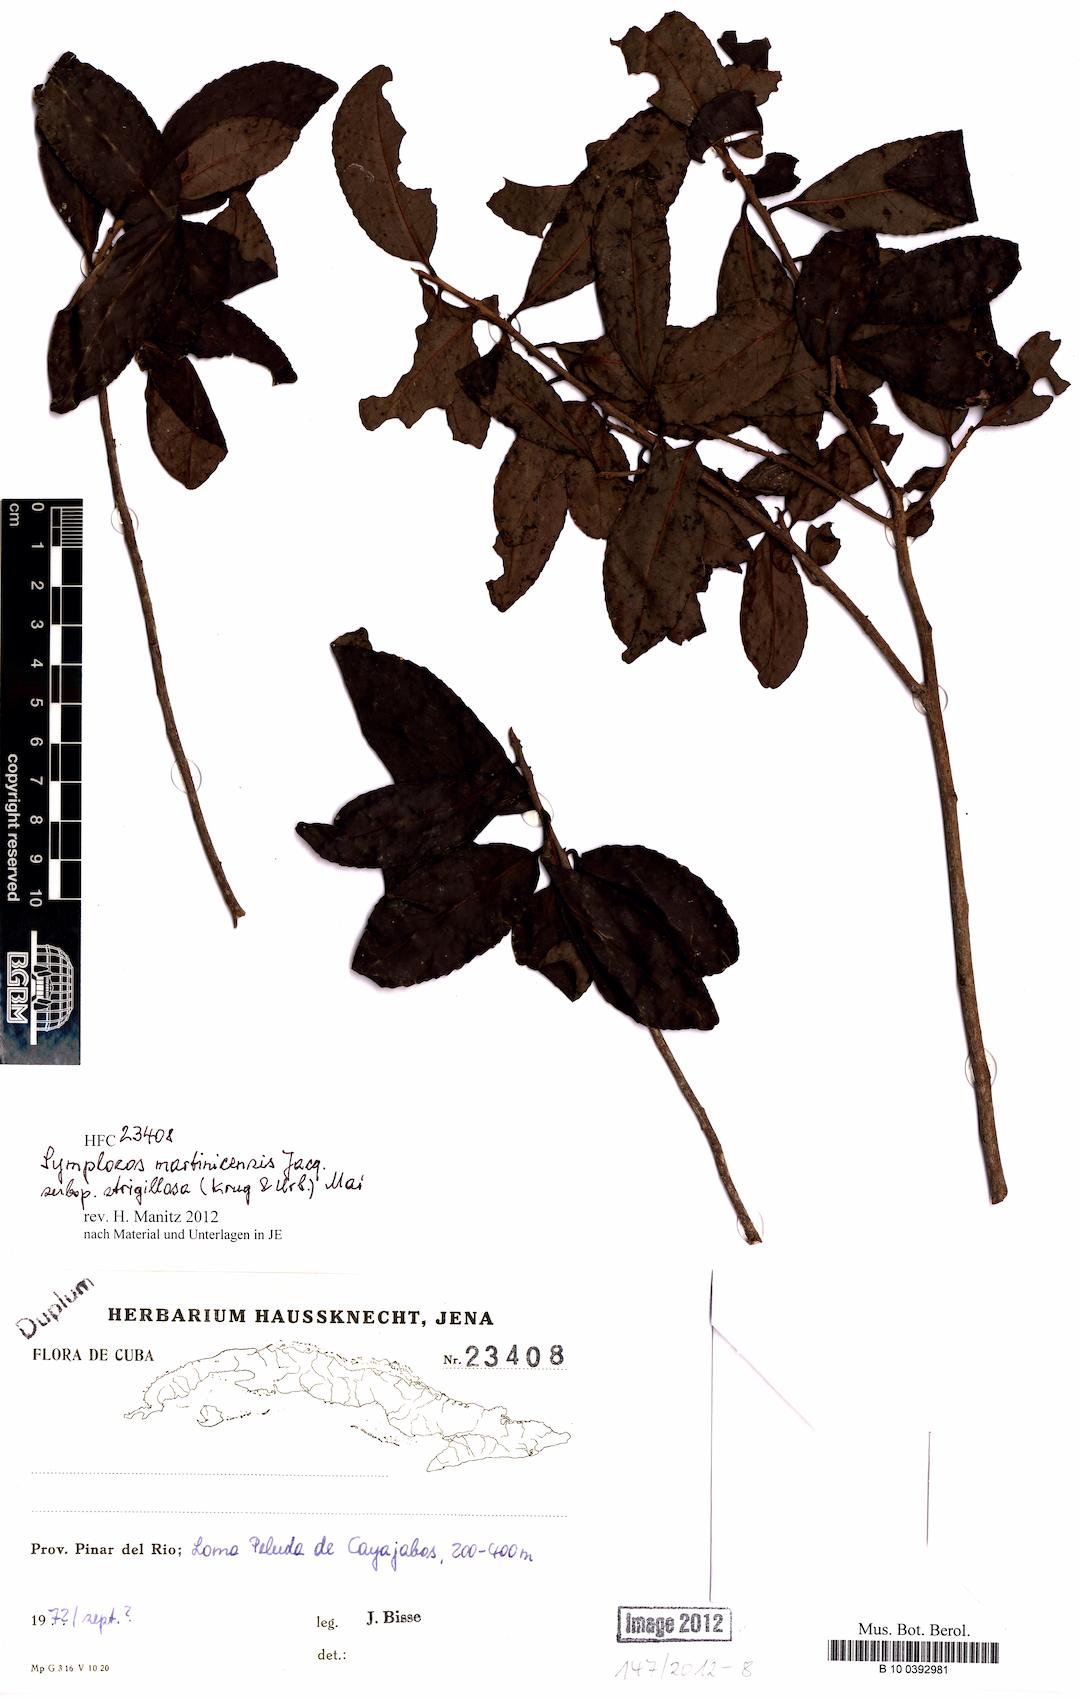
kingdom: Plantae
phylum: Tracheophyta
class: Magnoliopsida
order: Ericales
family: Symplocaceae
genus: Symplocos
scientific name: Symplocos jurgensenii
